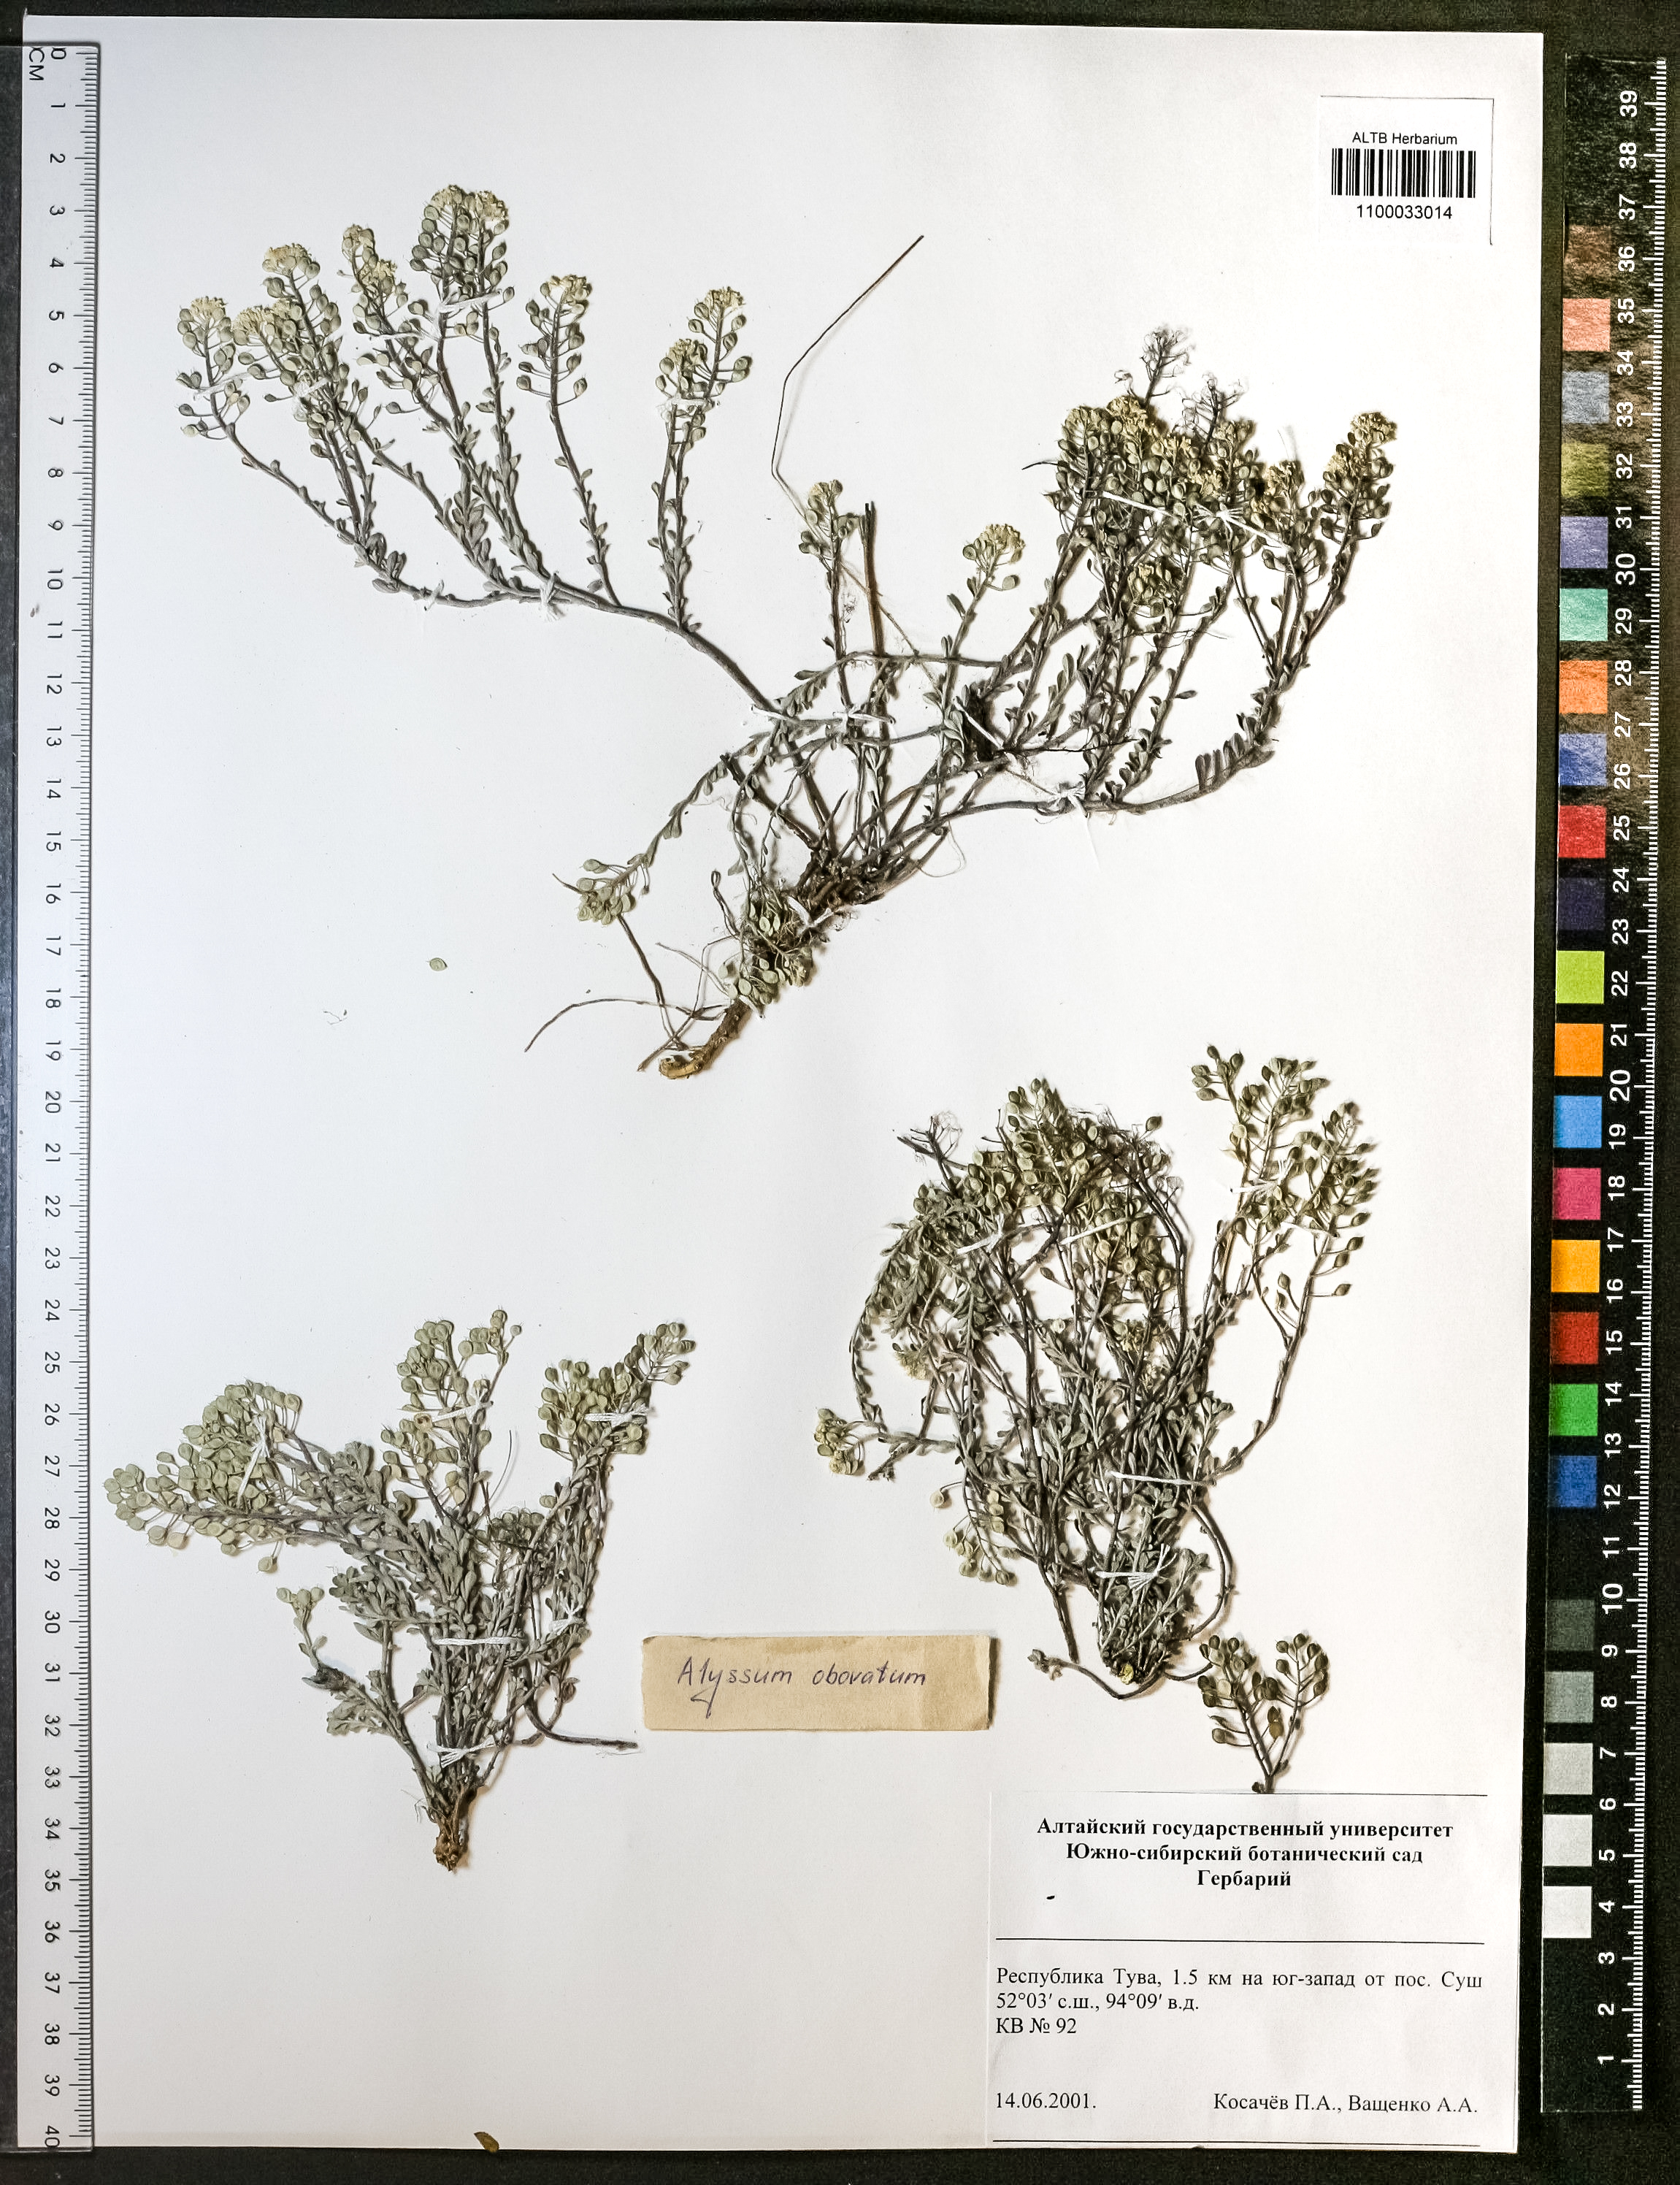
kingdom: Plantae
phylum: Tracheophyta
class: Magnoliopsida
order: Brassicales
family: Brassicaceae
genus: Odontarrhena
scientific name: Odontarrhena obovata
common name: American alyssum
